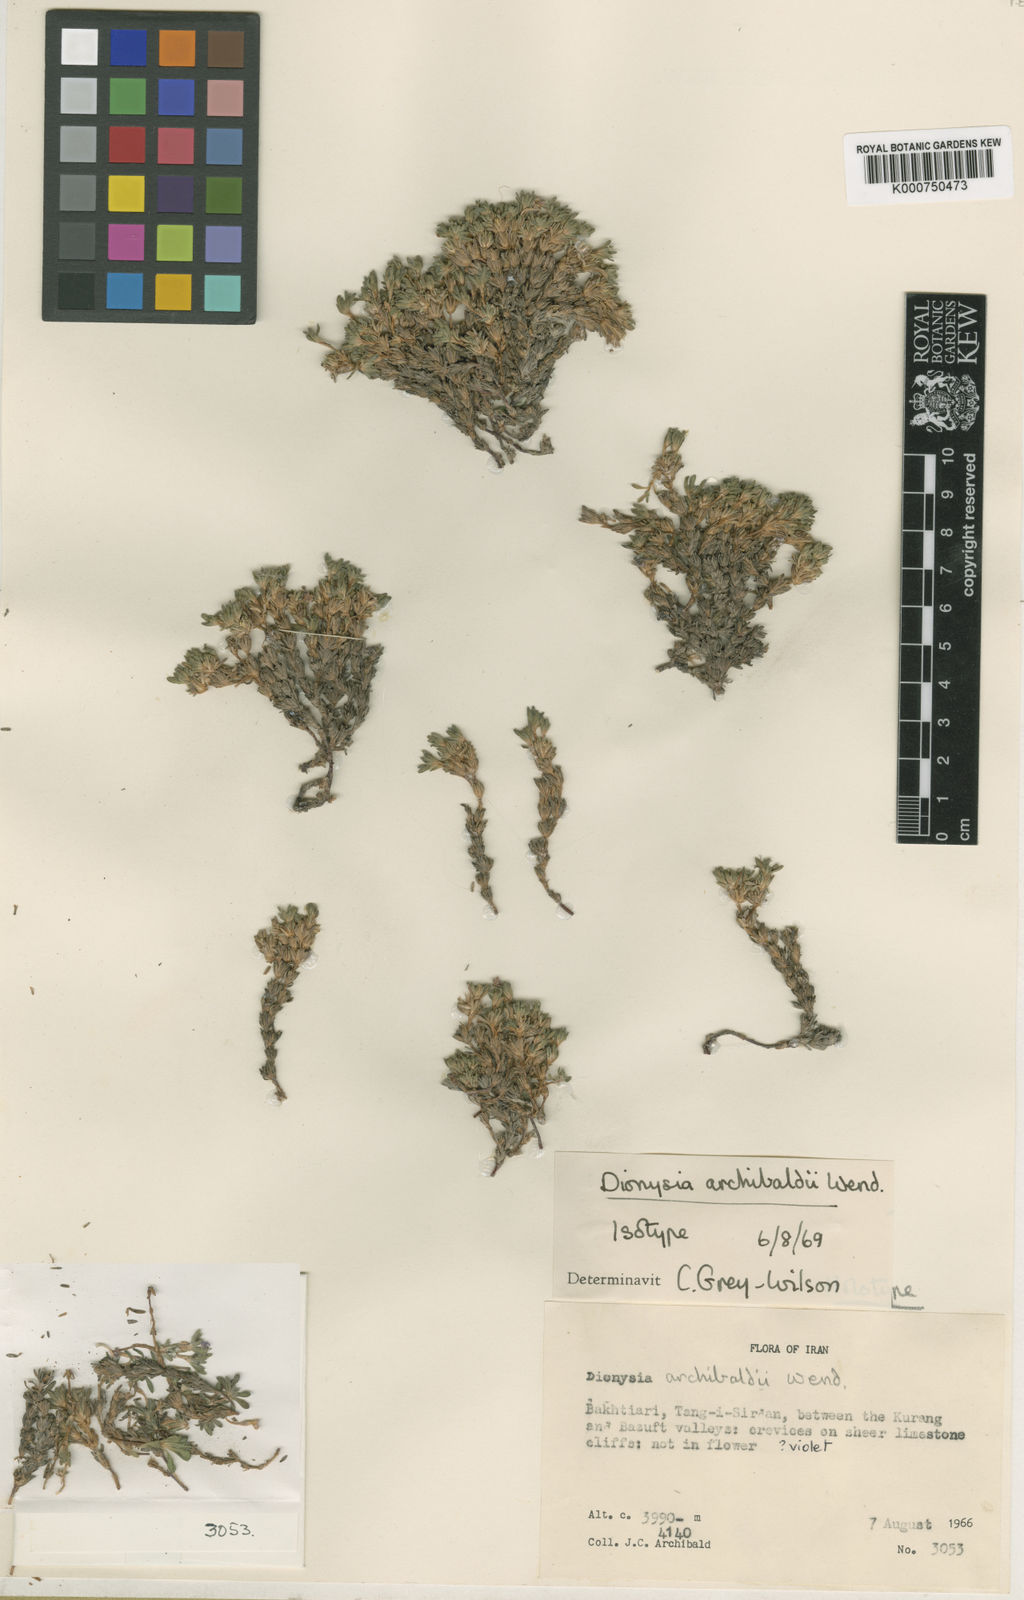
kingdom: Plantae
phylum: Tracheophyta
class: Magnoliopsida
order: Ericales
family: Primulaceae
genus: Dionysia
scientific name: Dionysia archibaldii
